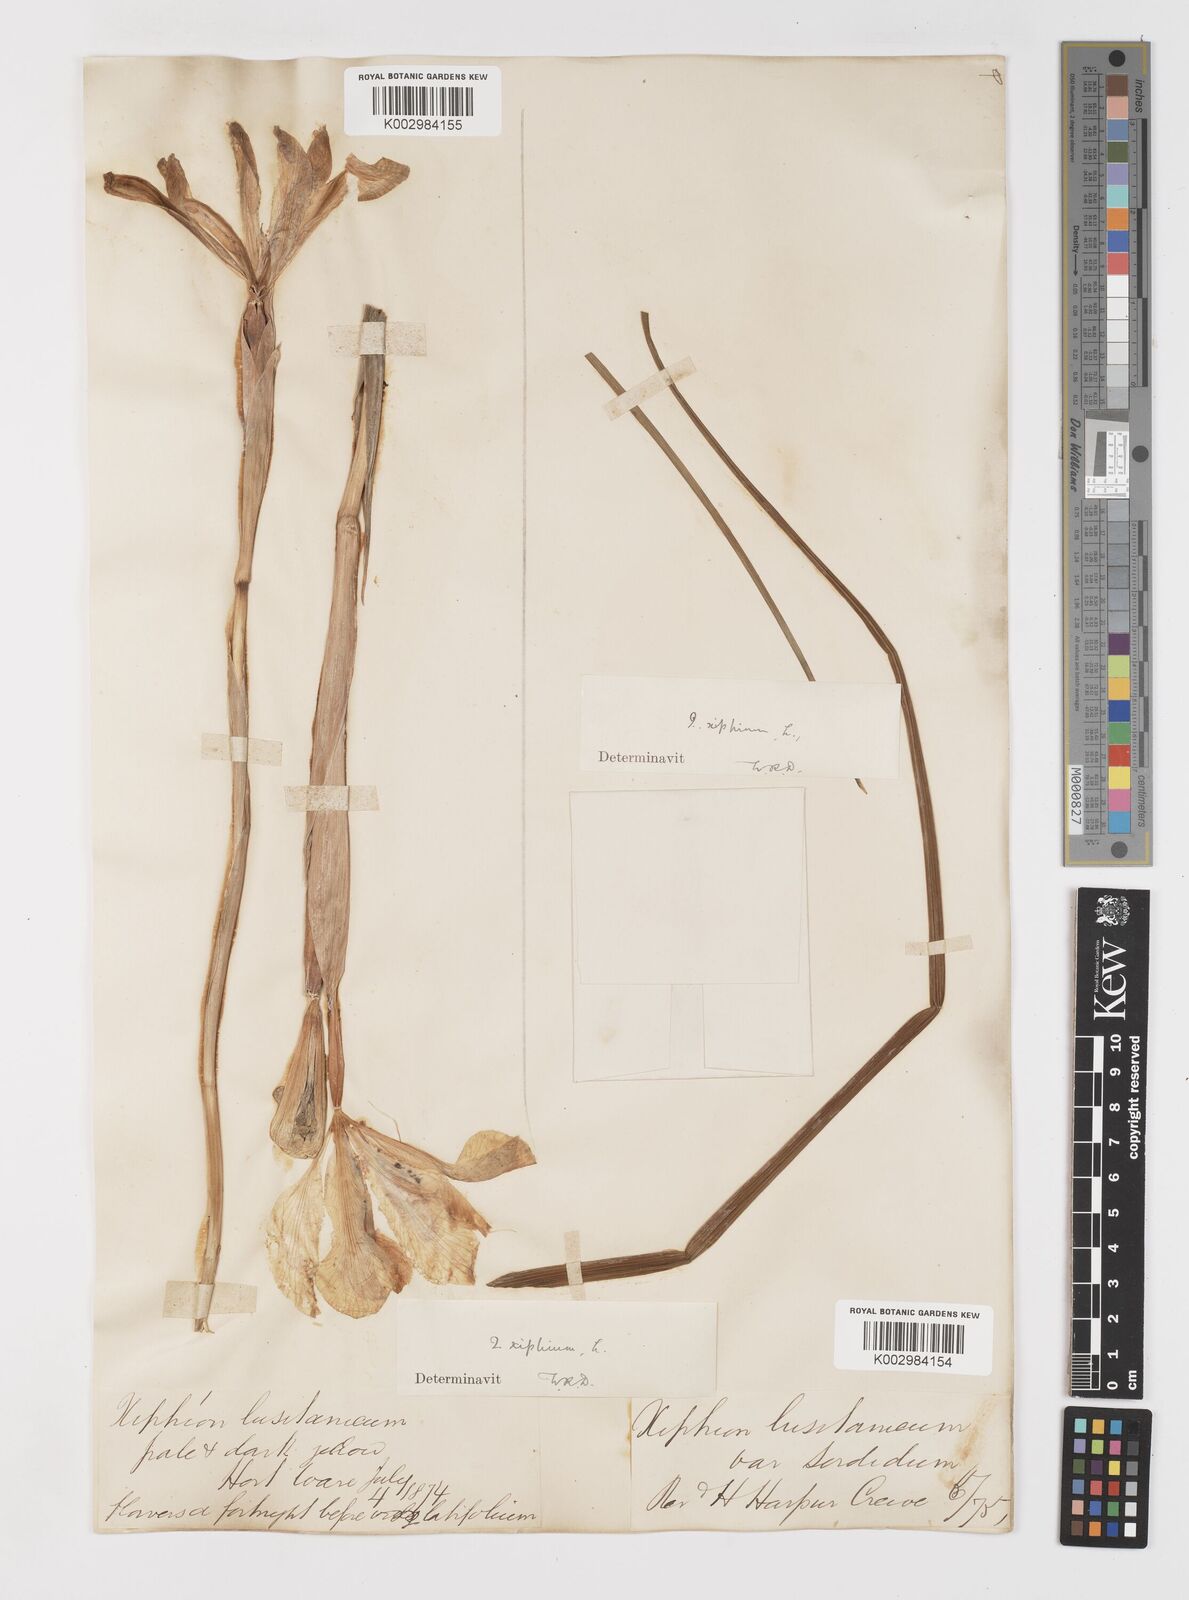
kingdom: Plantae
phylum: Tracheophyta
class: Liliopsida
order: Asparagales
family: Iridaceae
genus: Iris
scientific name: Iris xiphium
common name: Spanish iris
